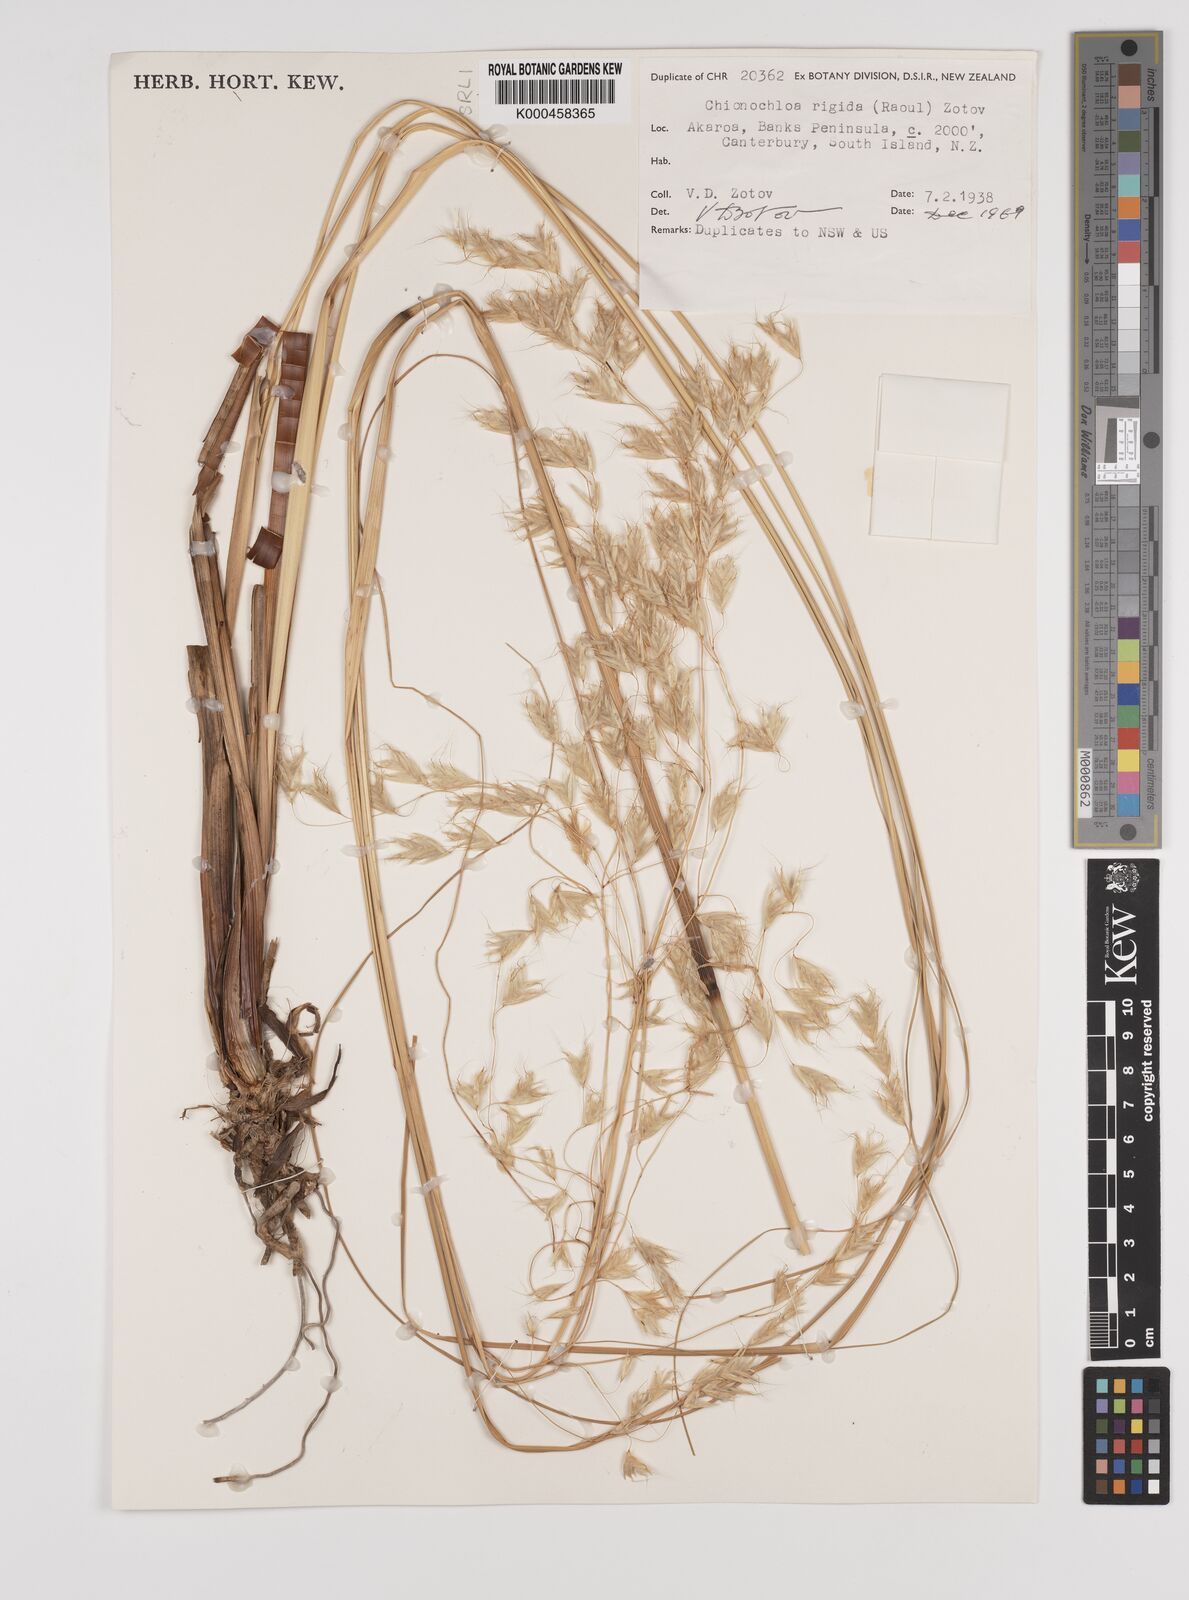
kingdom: Plantae
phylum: Tracheophyta
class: Liliopsida
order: Poales
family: Poaceae
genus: Chionochloa
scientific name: Chionochloa rigida
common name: Narrow leaved snow tussock
